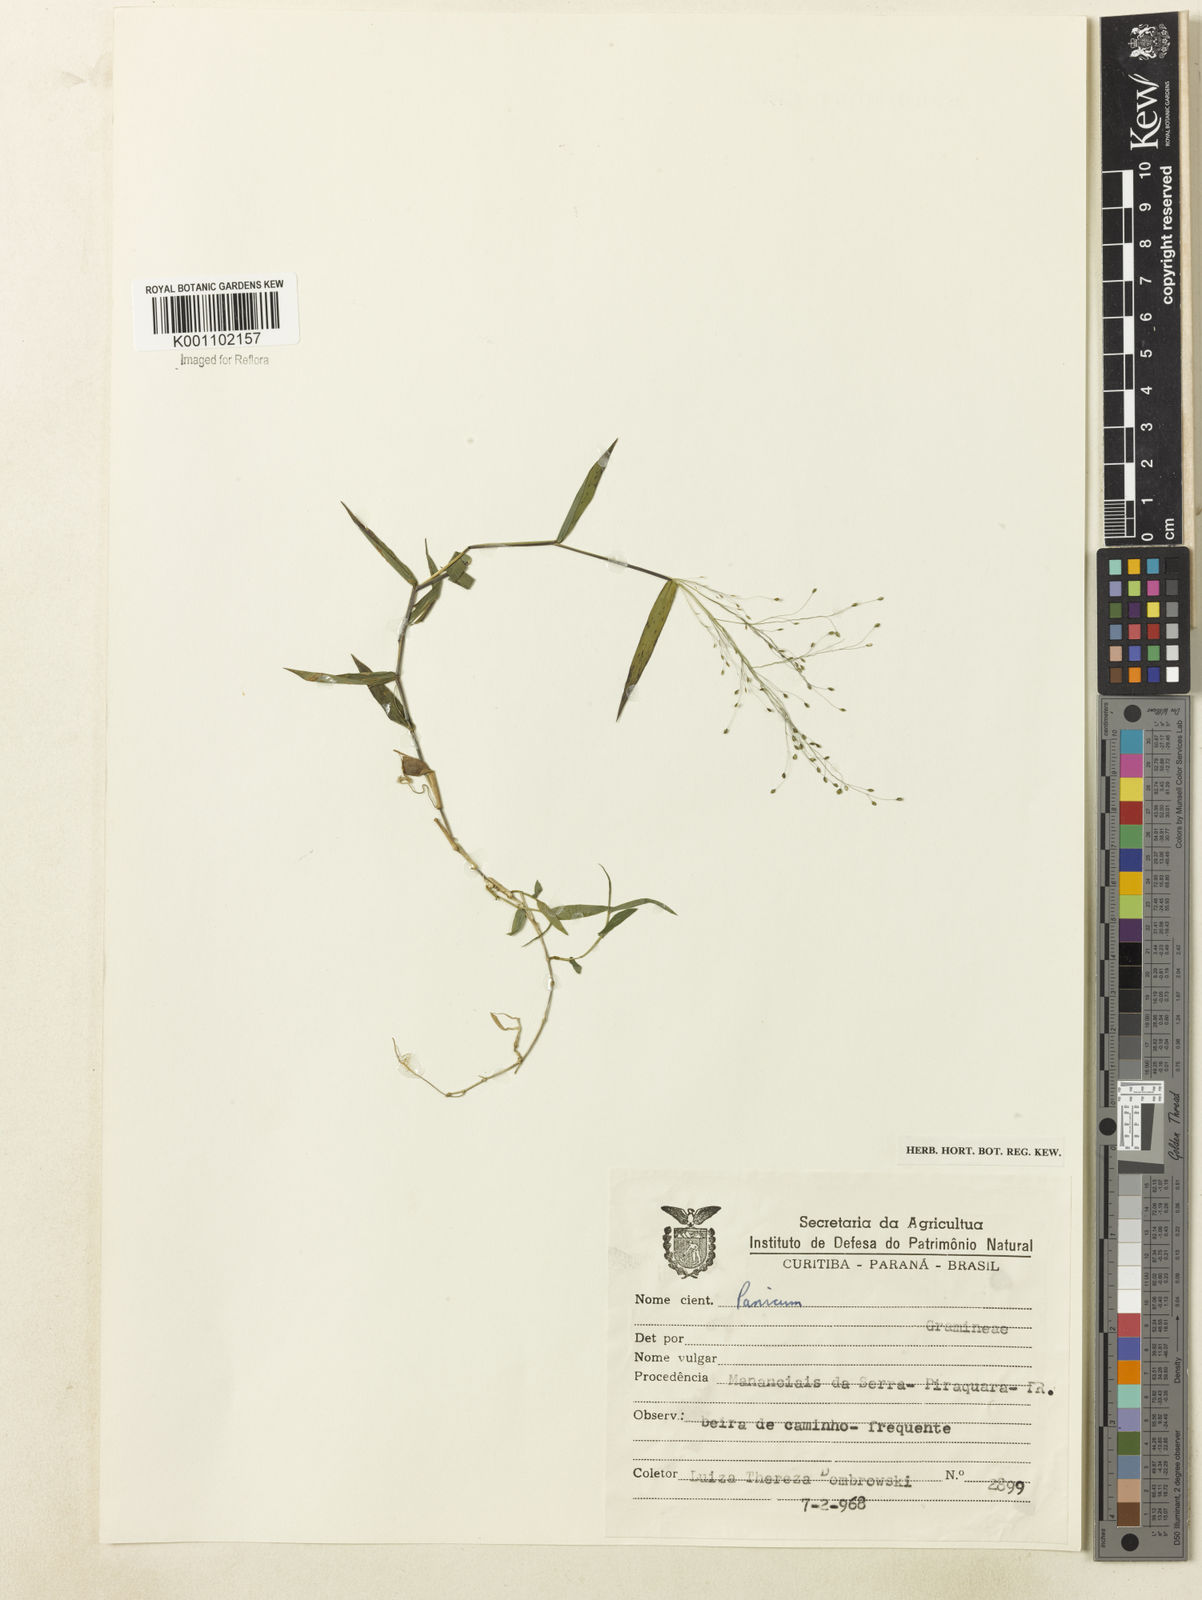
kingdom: Plantae
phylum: Tracheophyta
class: Liliopsida
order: Poales
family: Poaceae
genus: Dichanthelium
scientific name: Dichanthelium hebotes
